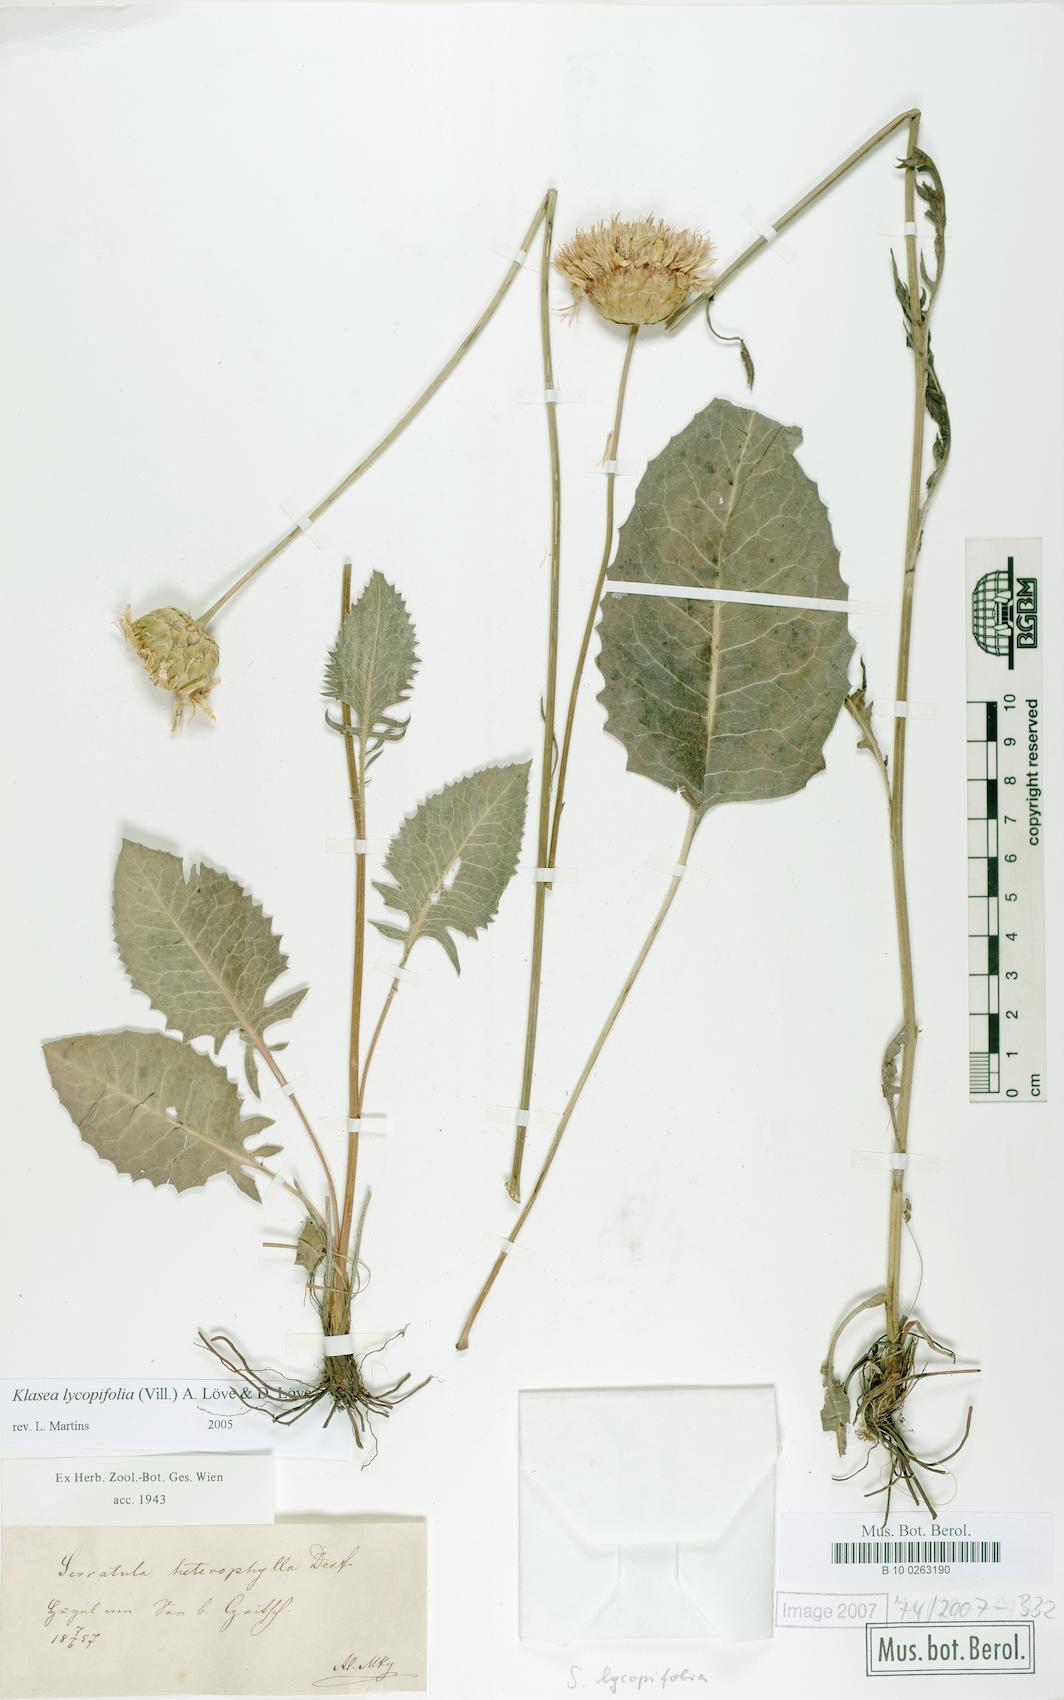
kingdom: Plantae
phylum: Tracheophyta
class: Magnoliopsida
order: Asterales
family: Asteraceae
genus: Klasea
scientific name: Klasea lycopifolia
